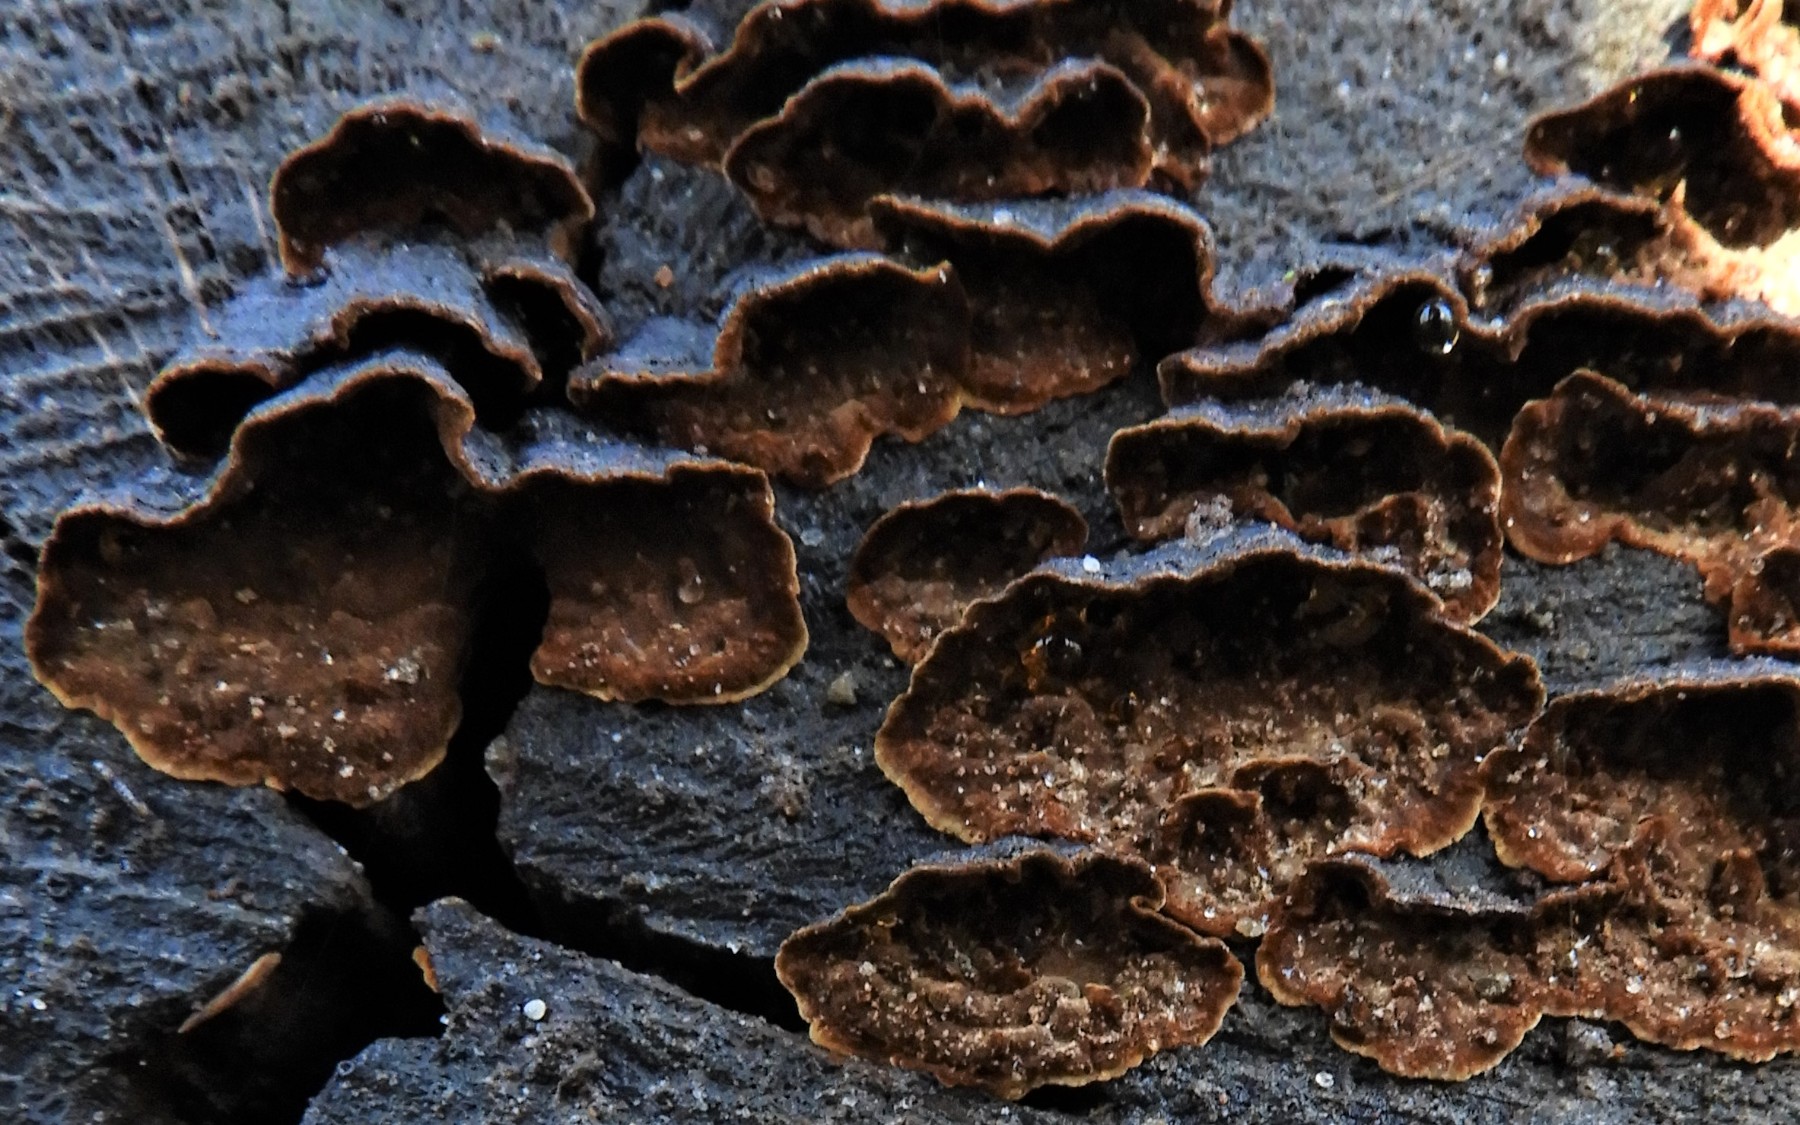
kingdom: Fungi
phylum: Basidiomycota
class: Agaricomycetes
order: Hymenochaetales
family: Hymenochaetaceae
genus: Hymenochaete
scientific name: Hymenochaete rubiginosa
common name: stiv ruslædersvamp
